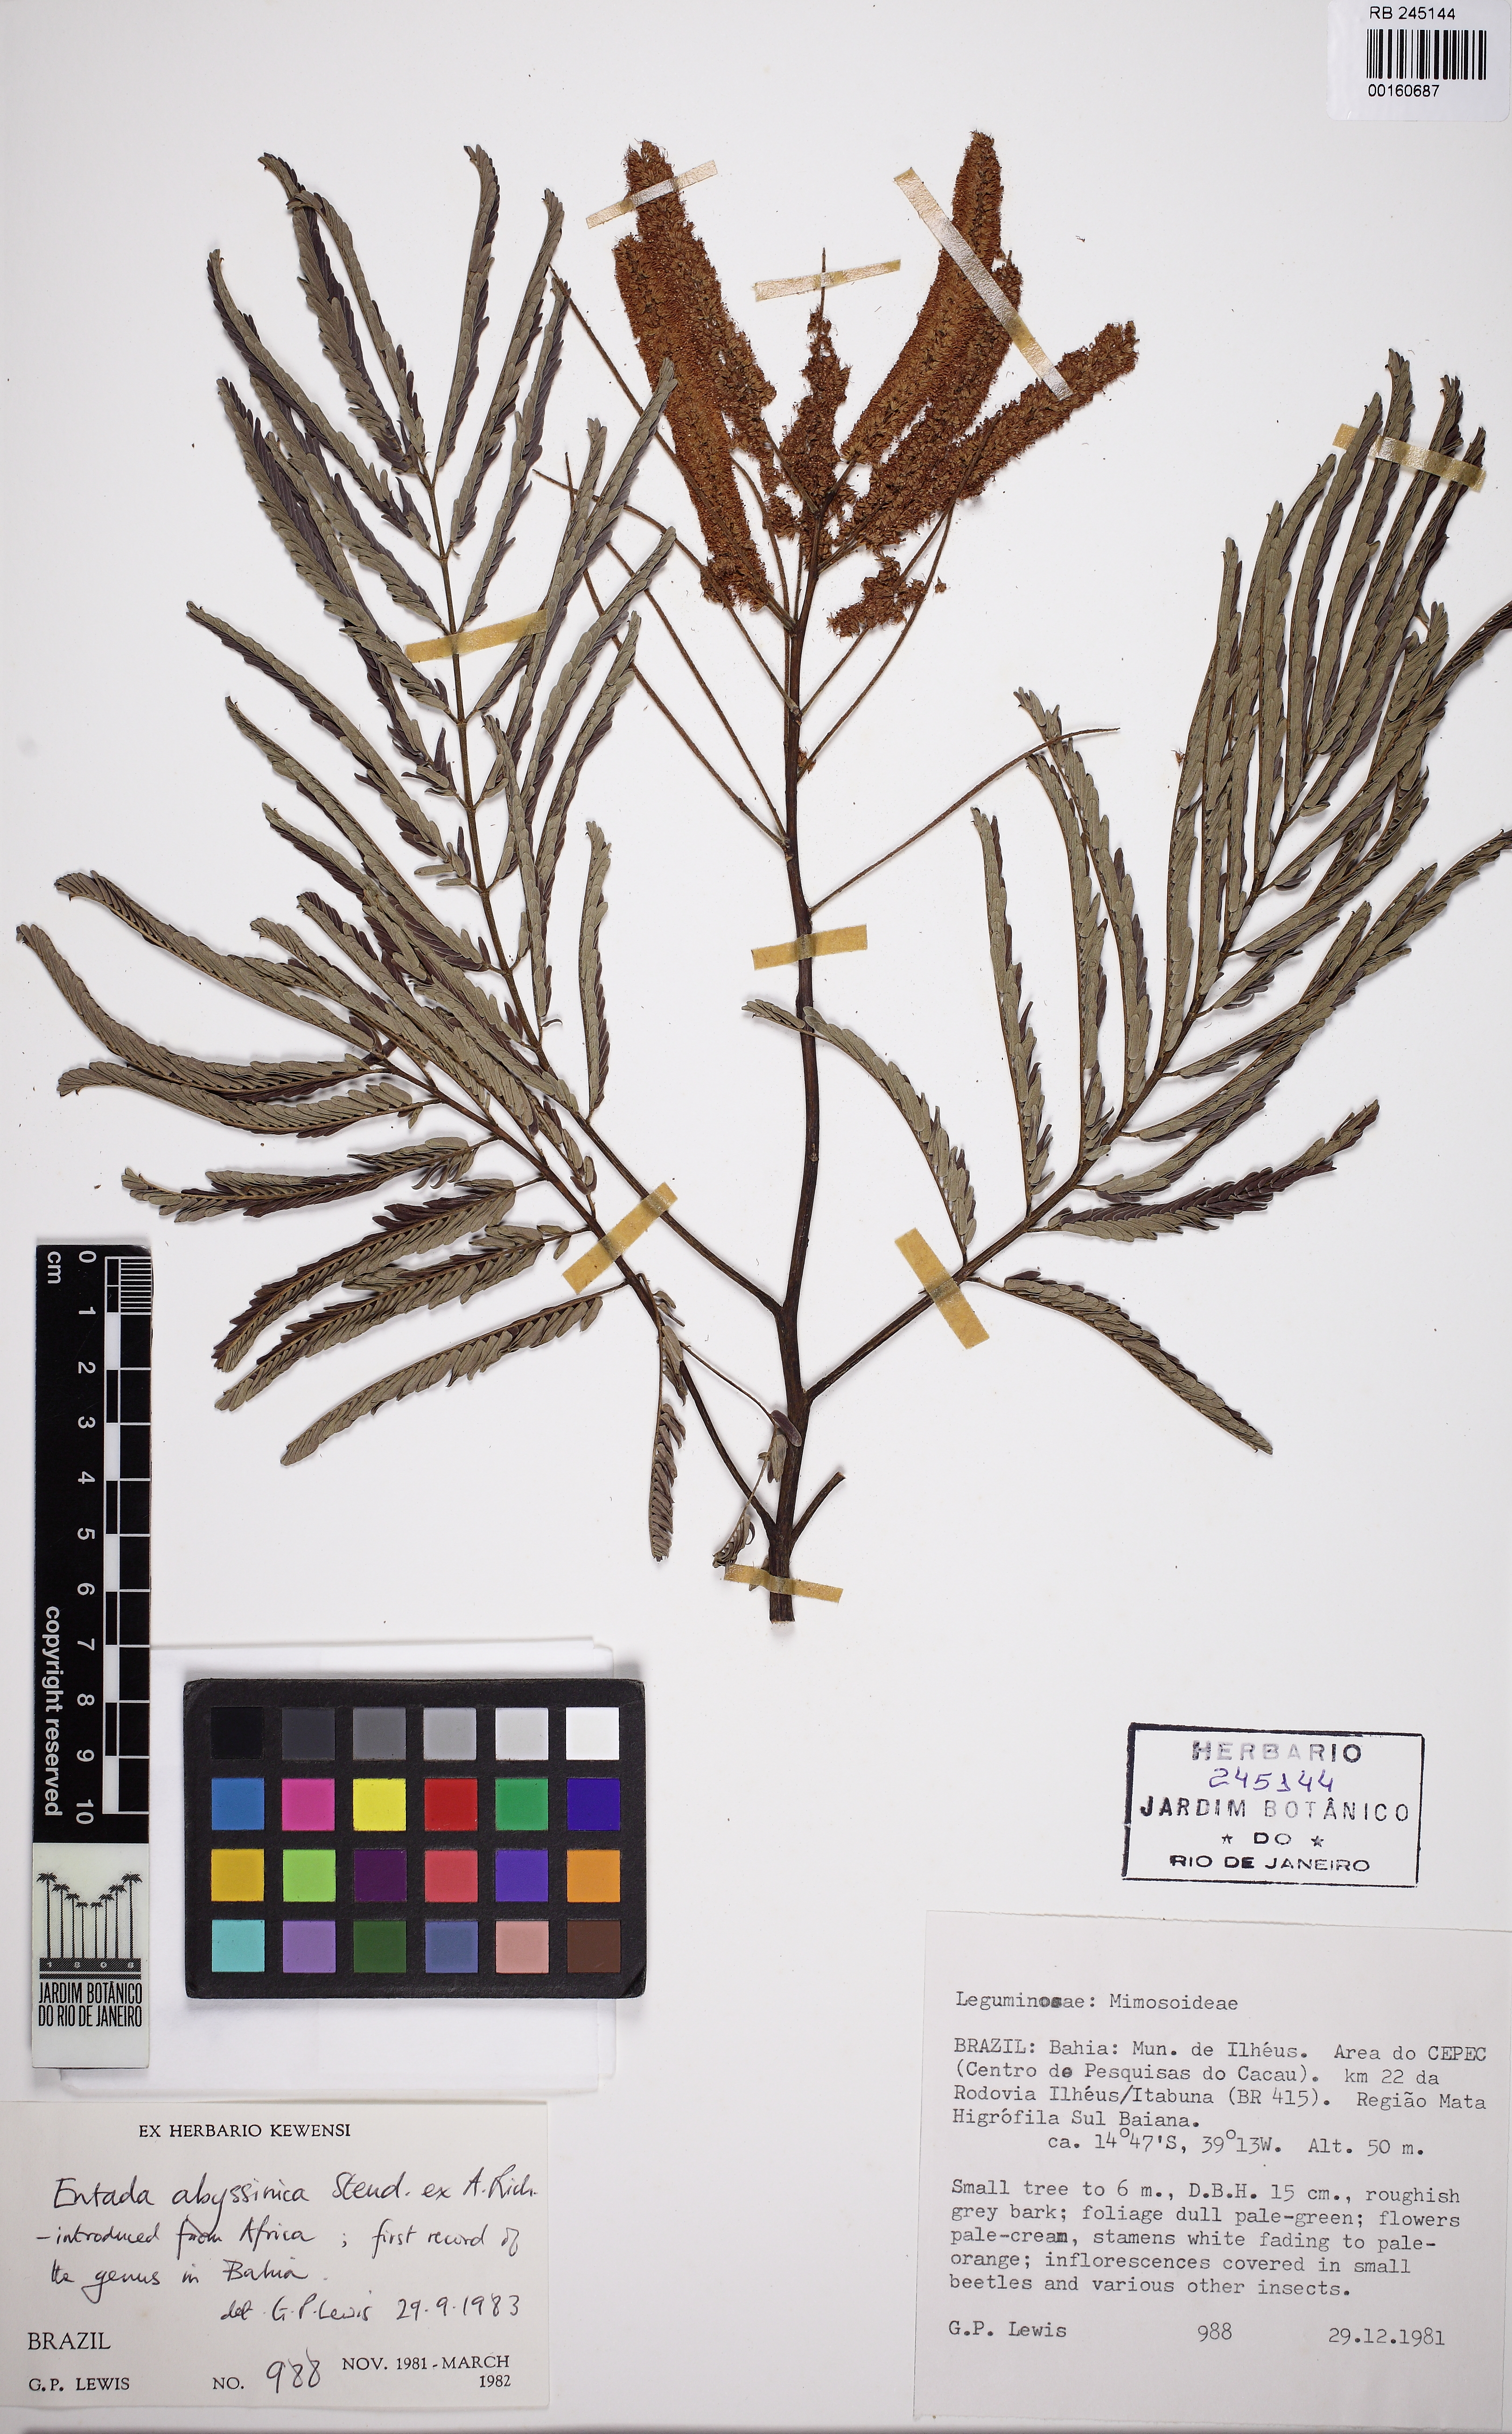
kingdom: Plantae
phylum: Tracheophyta
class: Magnoliopsida
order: Fabales
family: Fabaceae
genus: Entada
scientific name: Entada abyssinica
